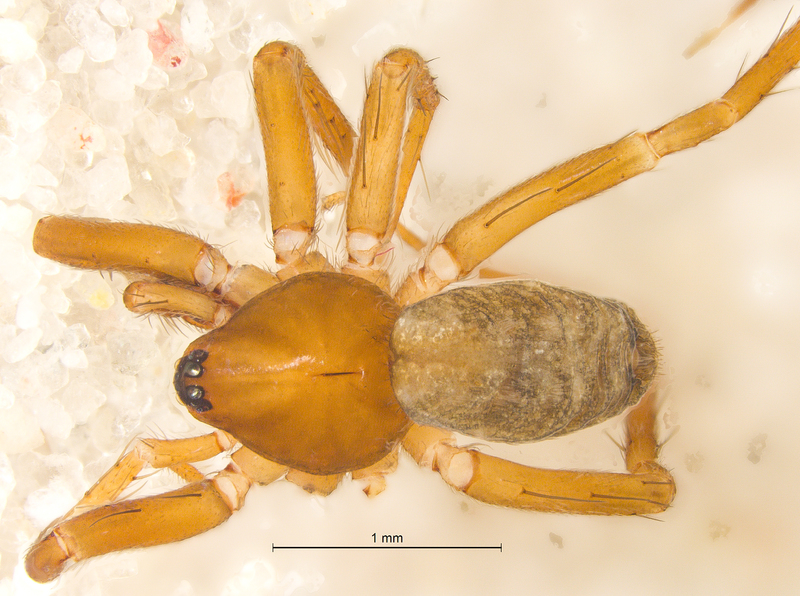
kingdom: Animalia
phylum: Arthropoda
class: Arachnida
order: Araneae
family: Liocranidae
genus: Apostenus
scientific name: Apostenus fuscus
